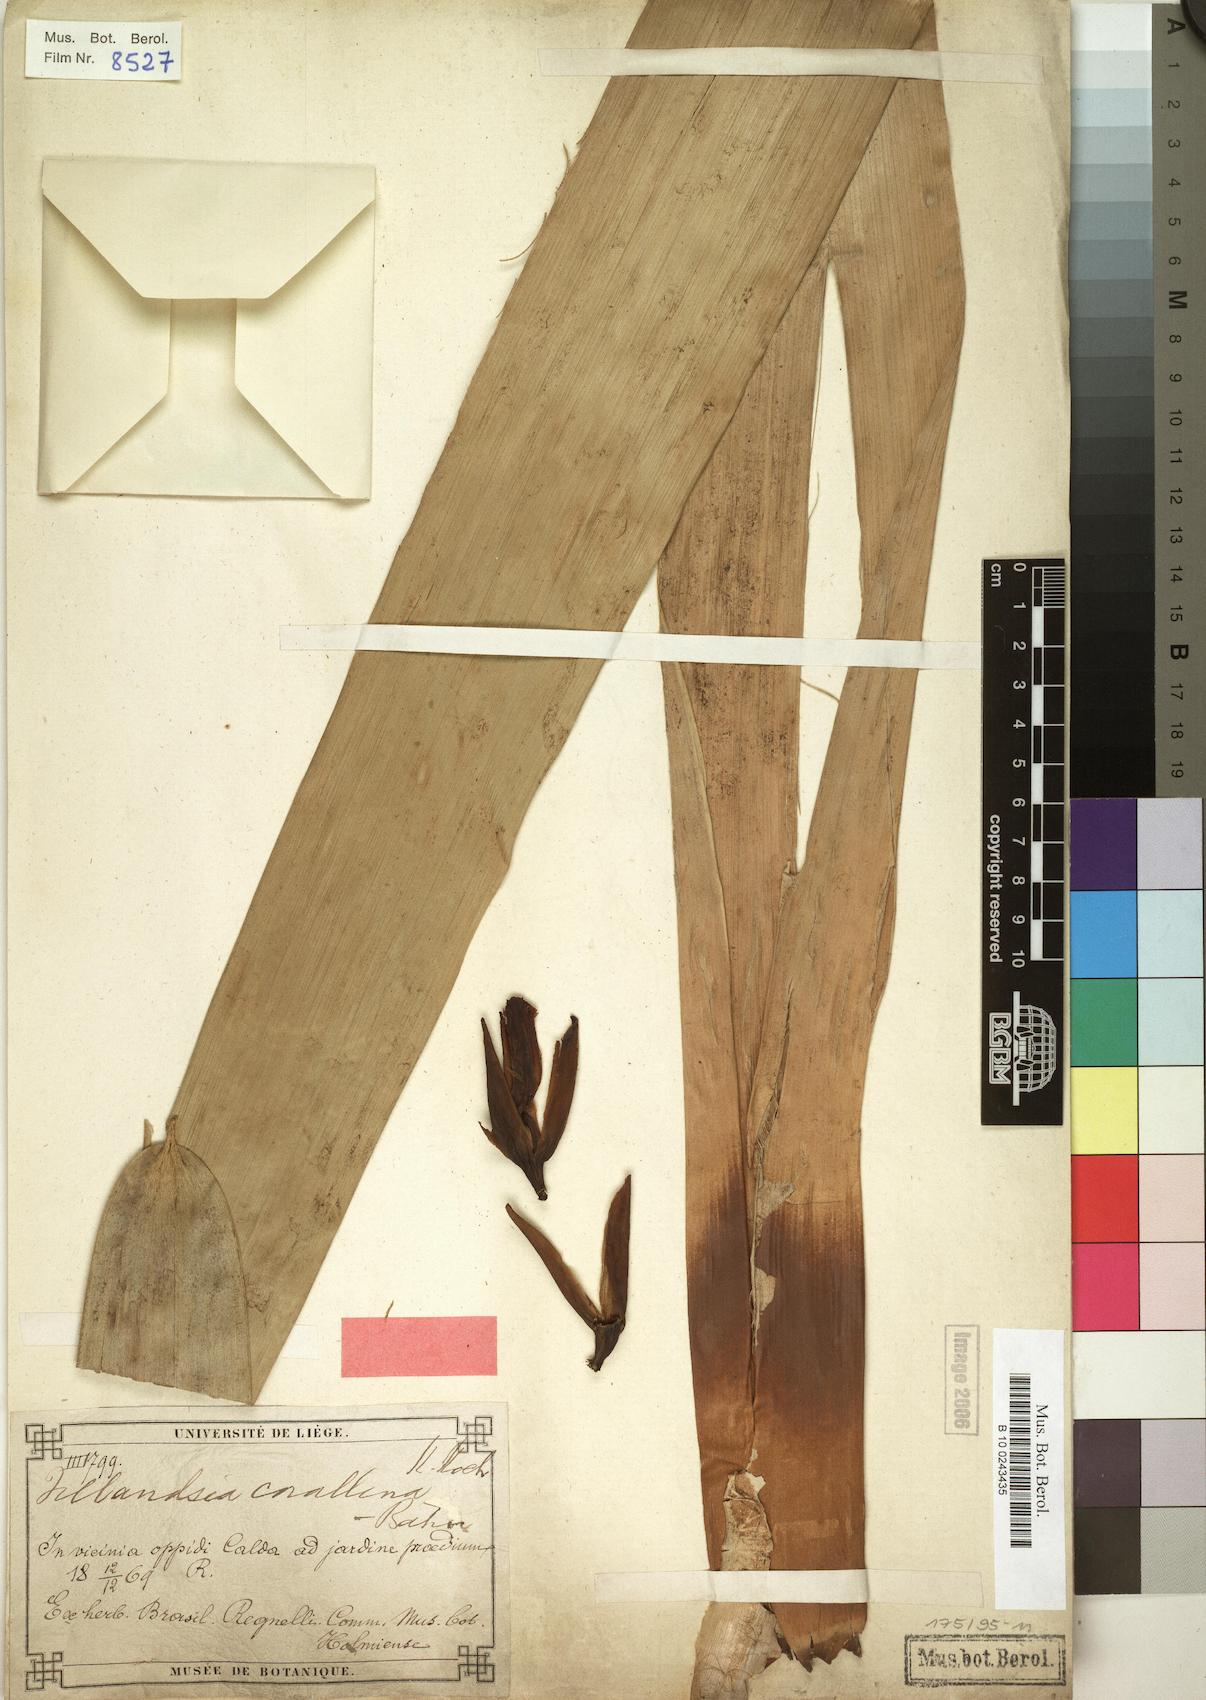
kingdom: Plantae
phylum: Tracheophyta
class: Liliopsida
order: Poales
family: Bromeliaceae
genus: Vriesea
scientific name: Vriesea regnellii
